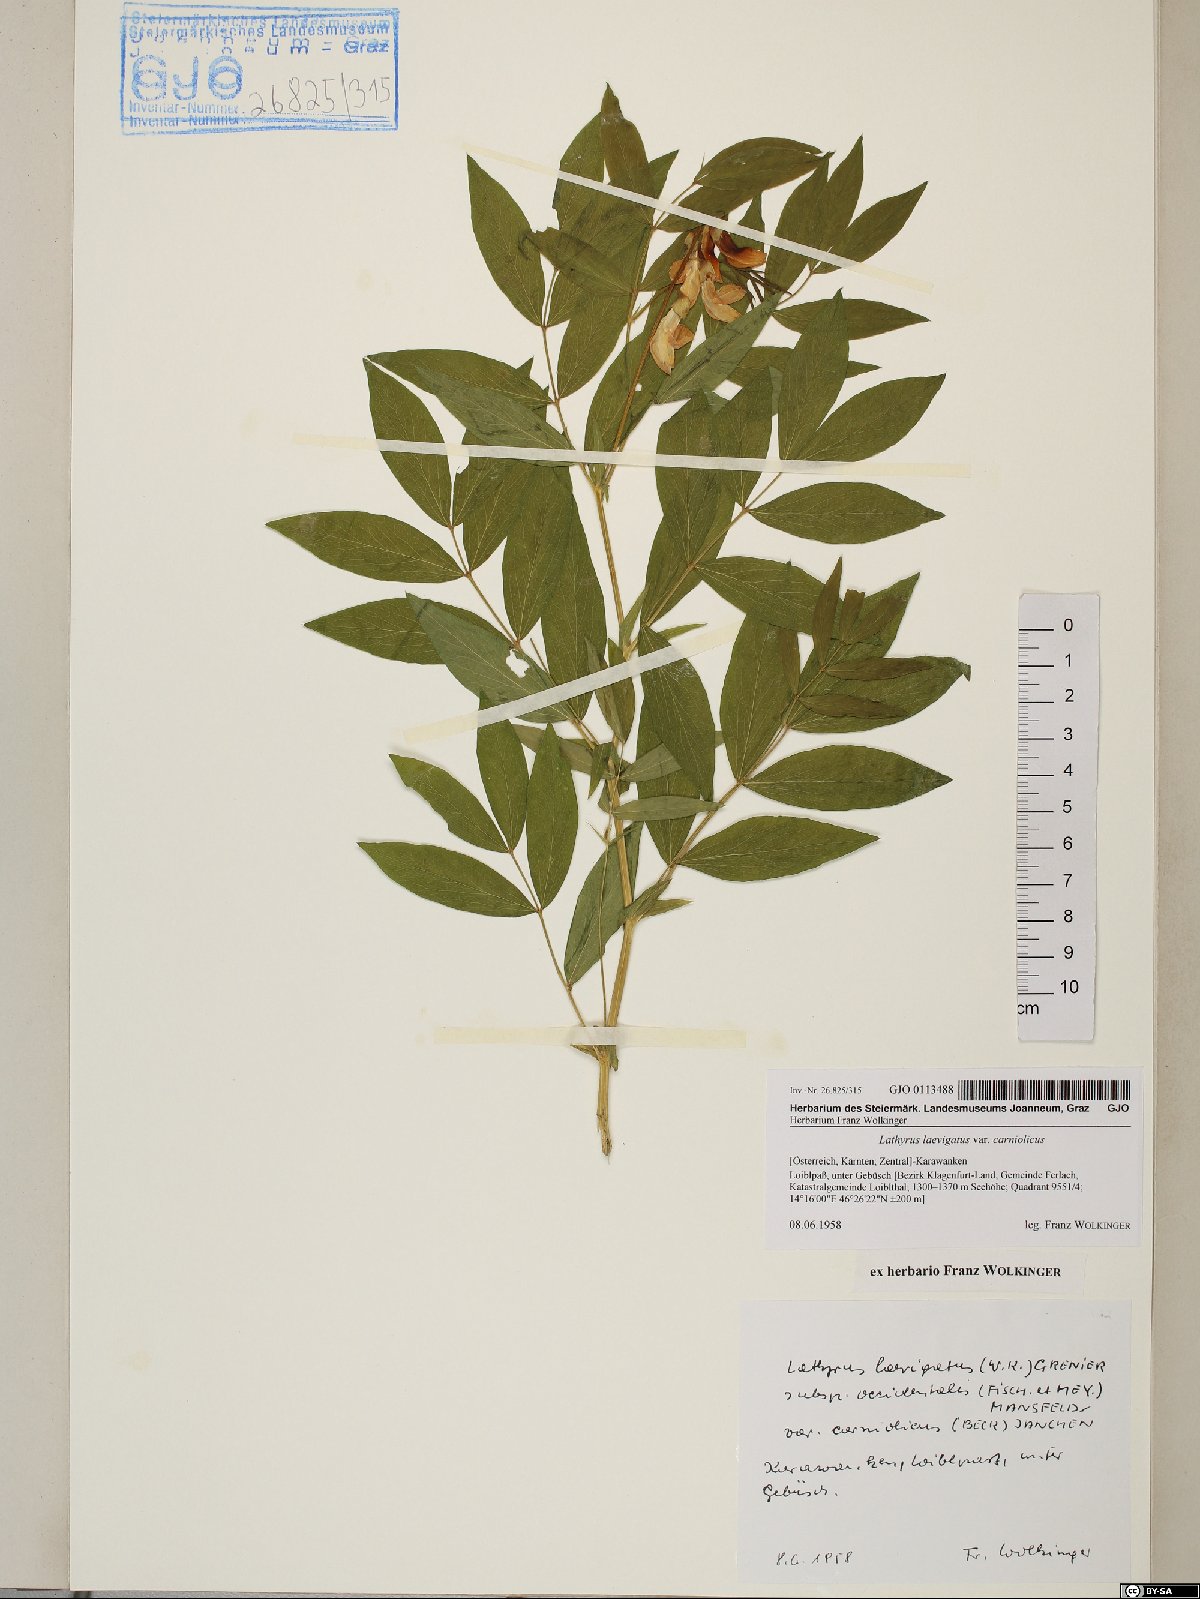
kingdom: Plantae
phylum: Tracheophyta
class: Magnoliopsida
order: Fabales
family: Fabaceae
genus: Lathyrus
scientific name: Lathyrus laevigatus
